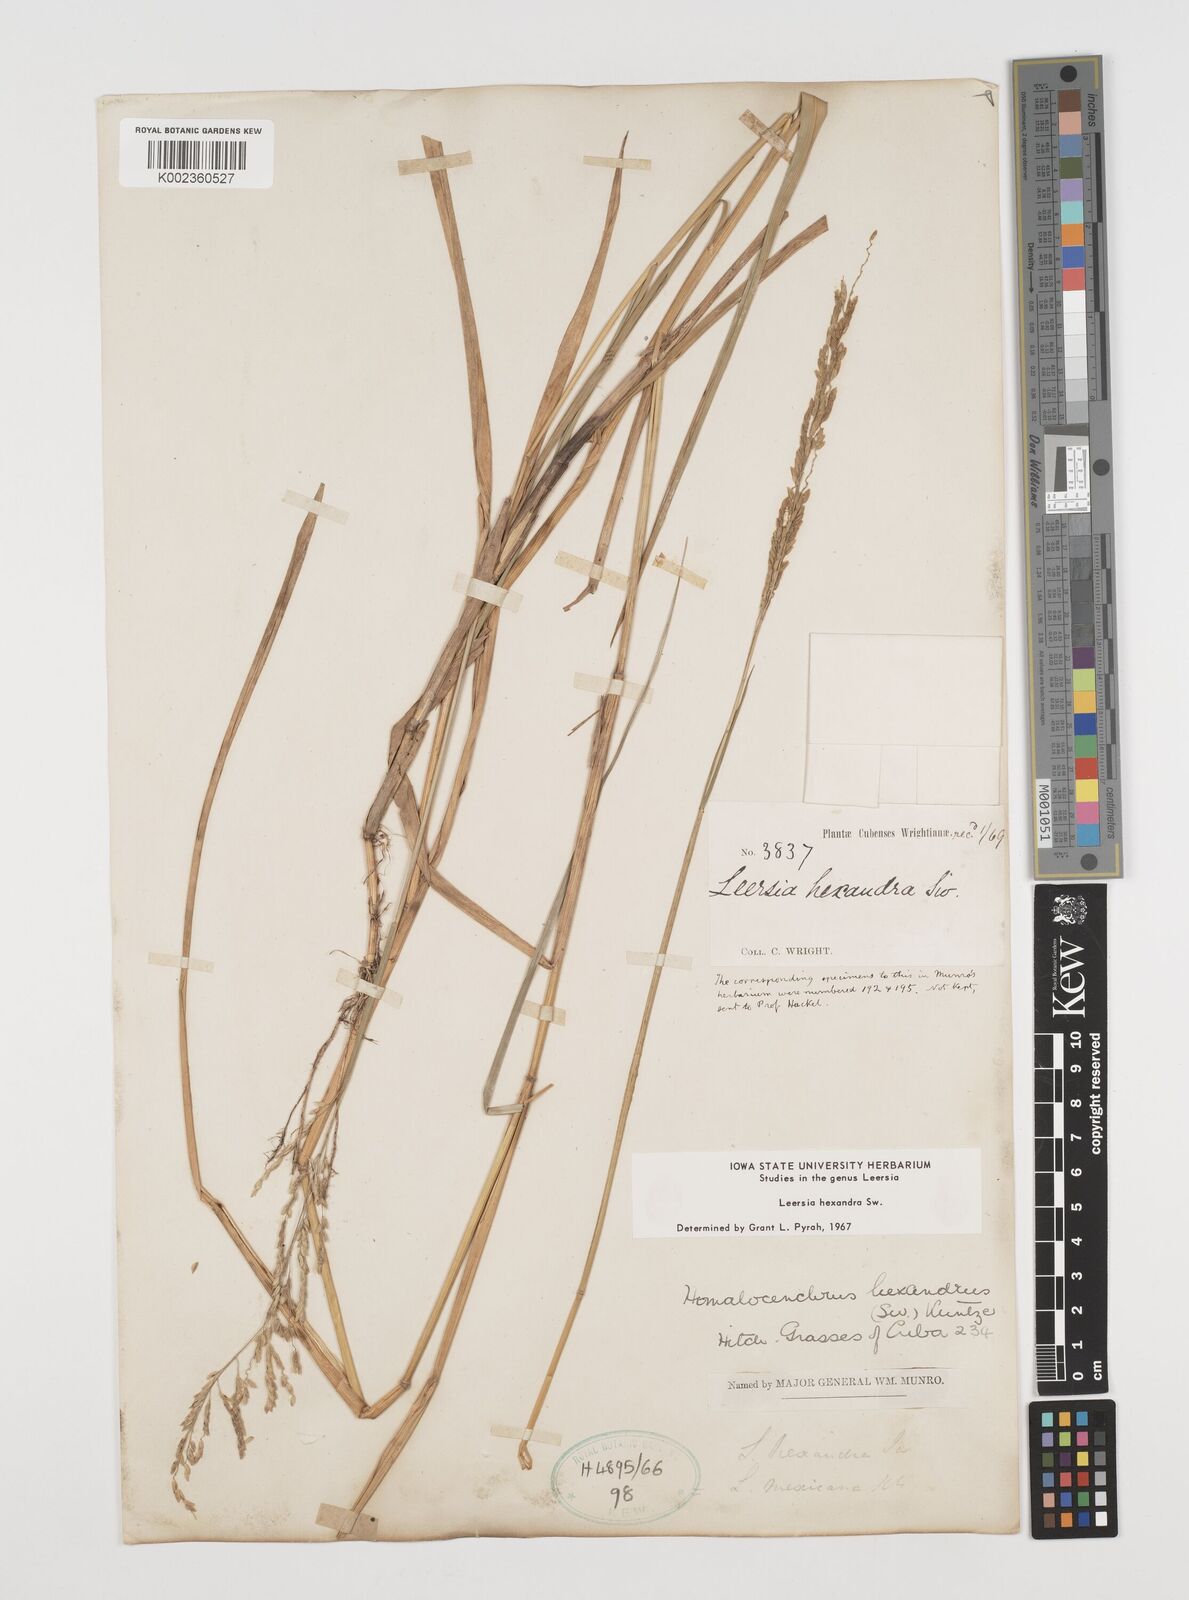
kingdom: Plantae
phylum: Tracheophyta
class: Liliopsida
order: Poales
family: Poaceae
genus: Leersia
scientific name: Leersia hexandra
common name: Southern cut grass
